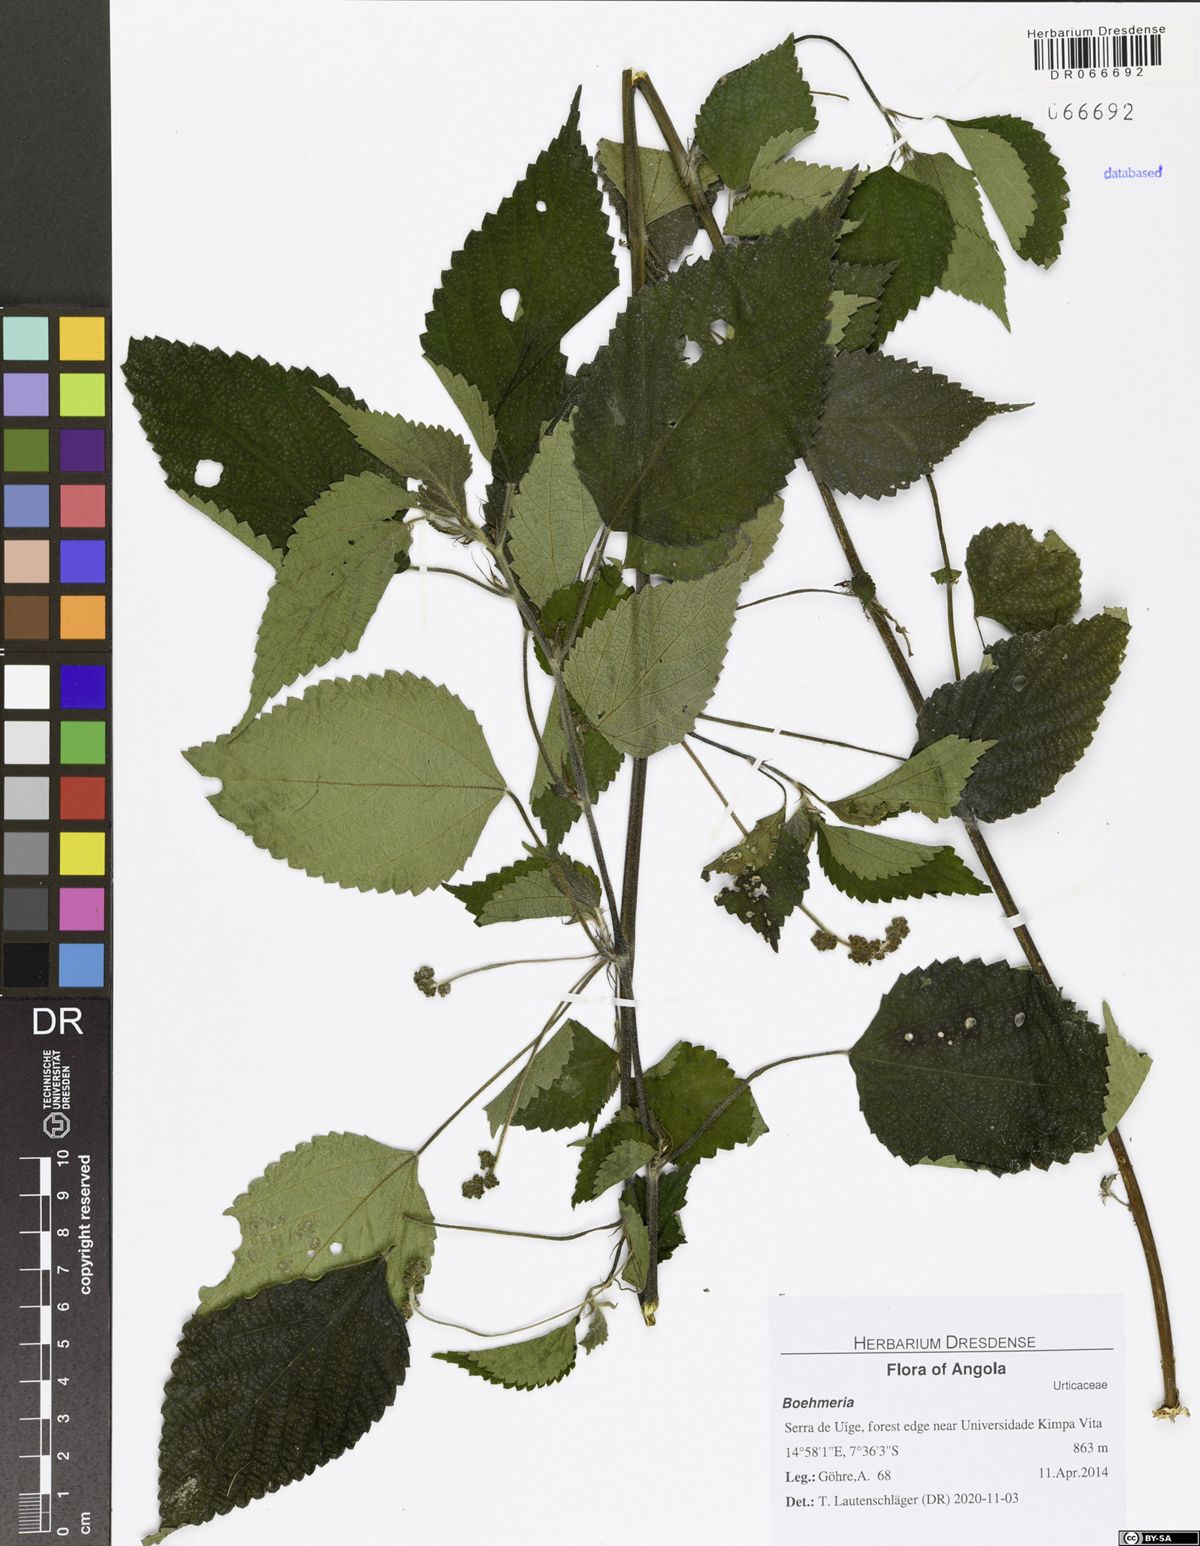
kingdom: Plantae
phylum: Tracheophyta
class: Magnoliopsida
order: Rosales
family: Urticaceae
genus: Laportea
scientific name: Laportea ovalifolia
